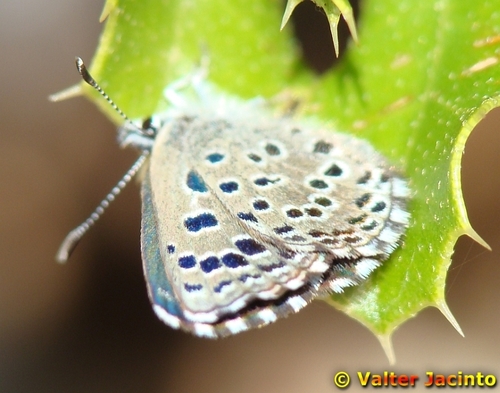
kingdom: Animalia
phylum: Arthropoda
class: Insecta
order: Lepidoptera
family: Lycaenidae
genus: Pseudophilotes
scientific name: Pseudophilotes abencerragus
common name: False baton blue
